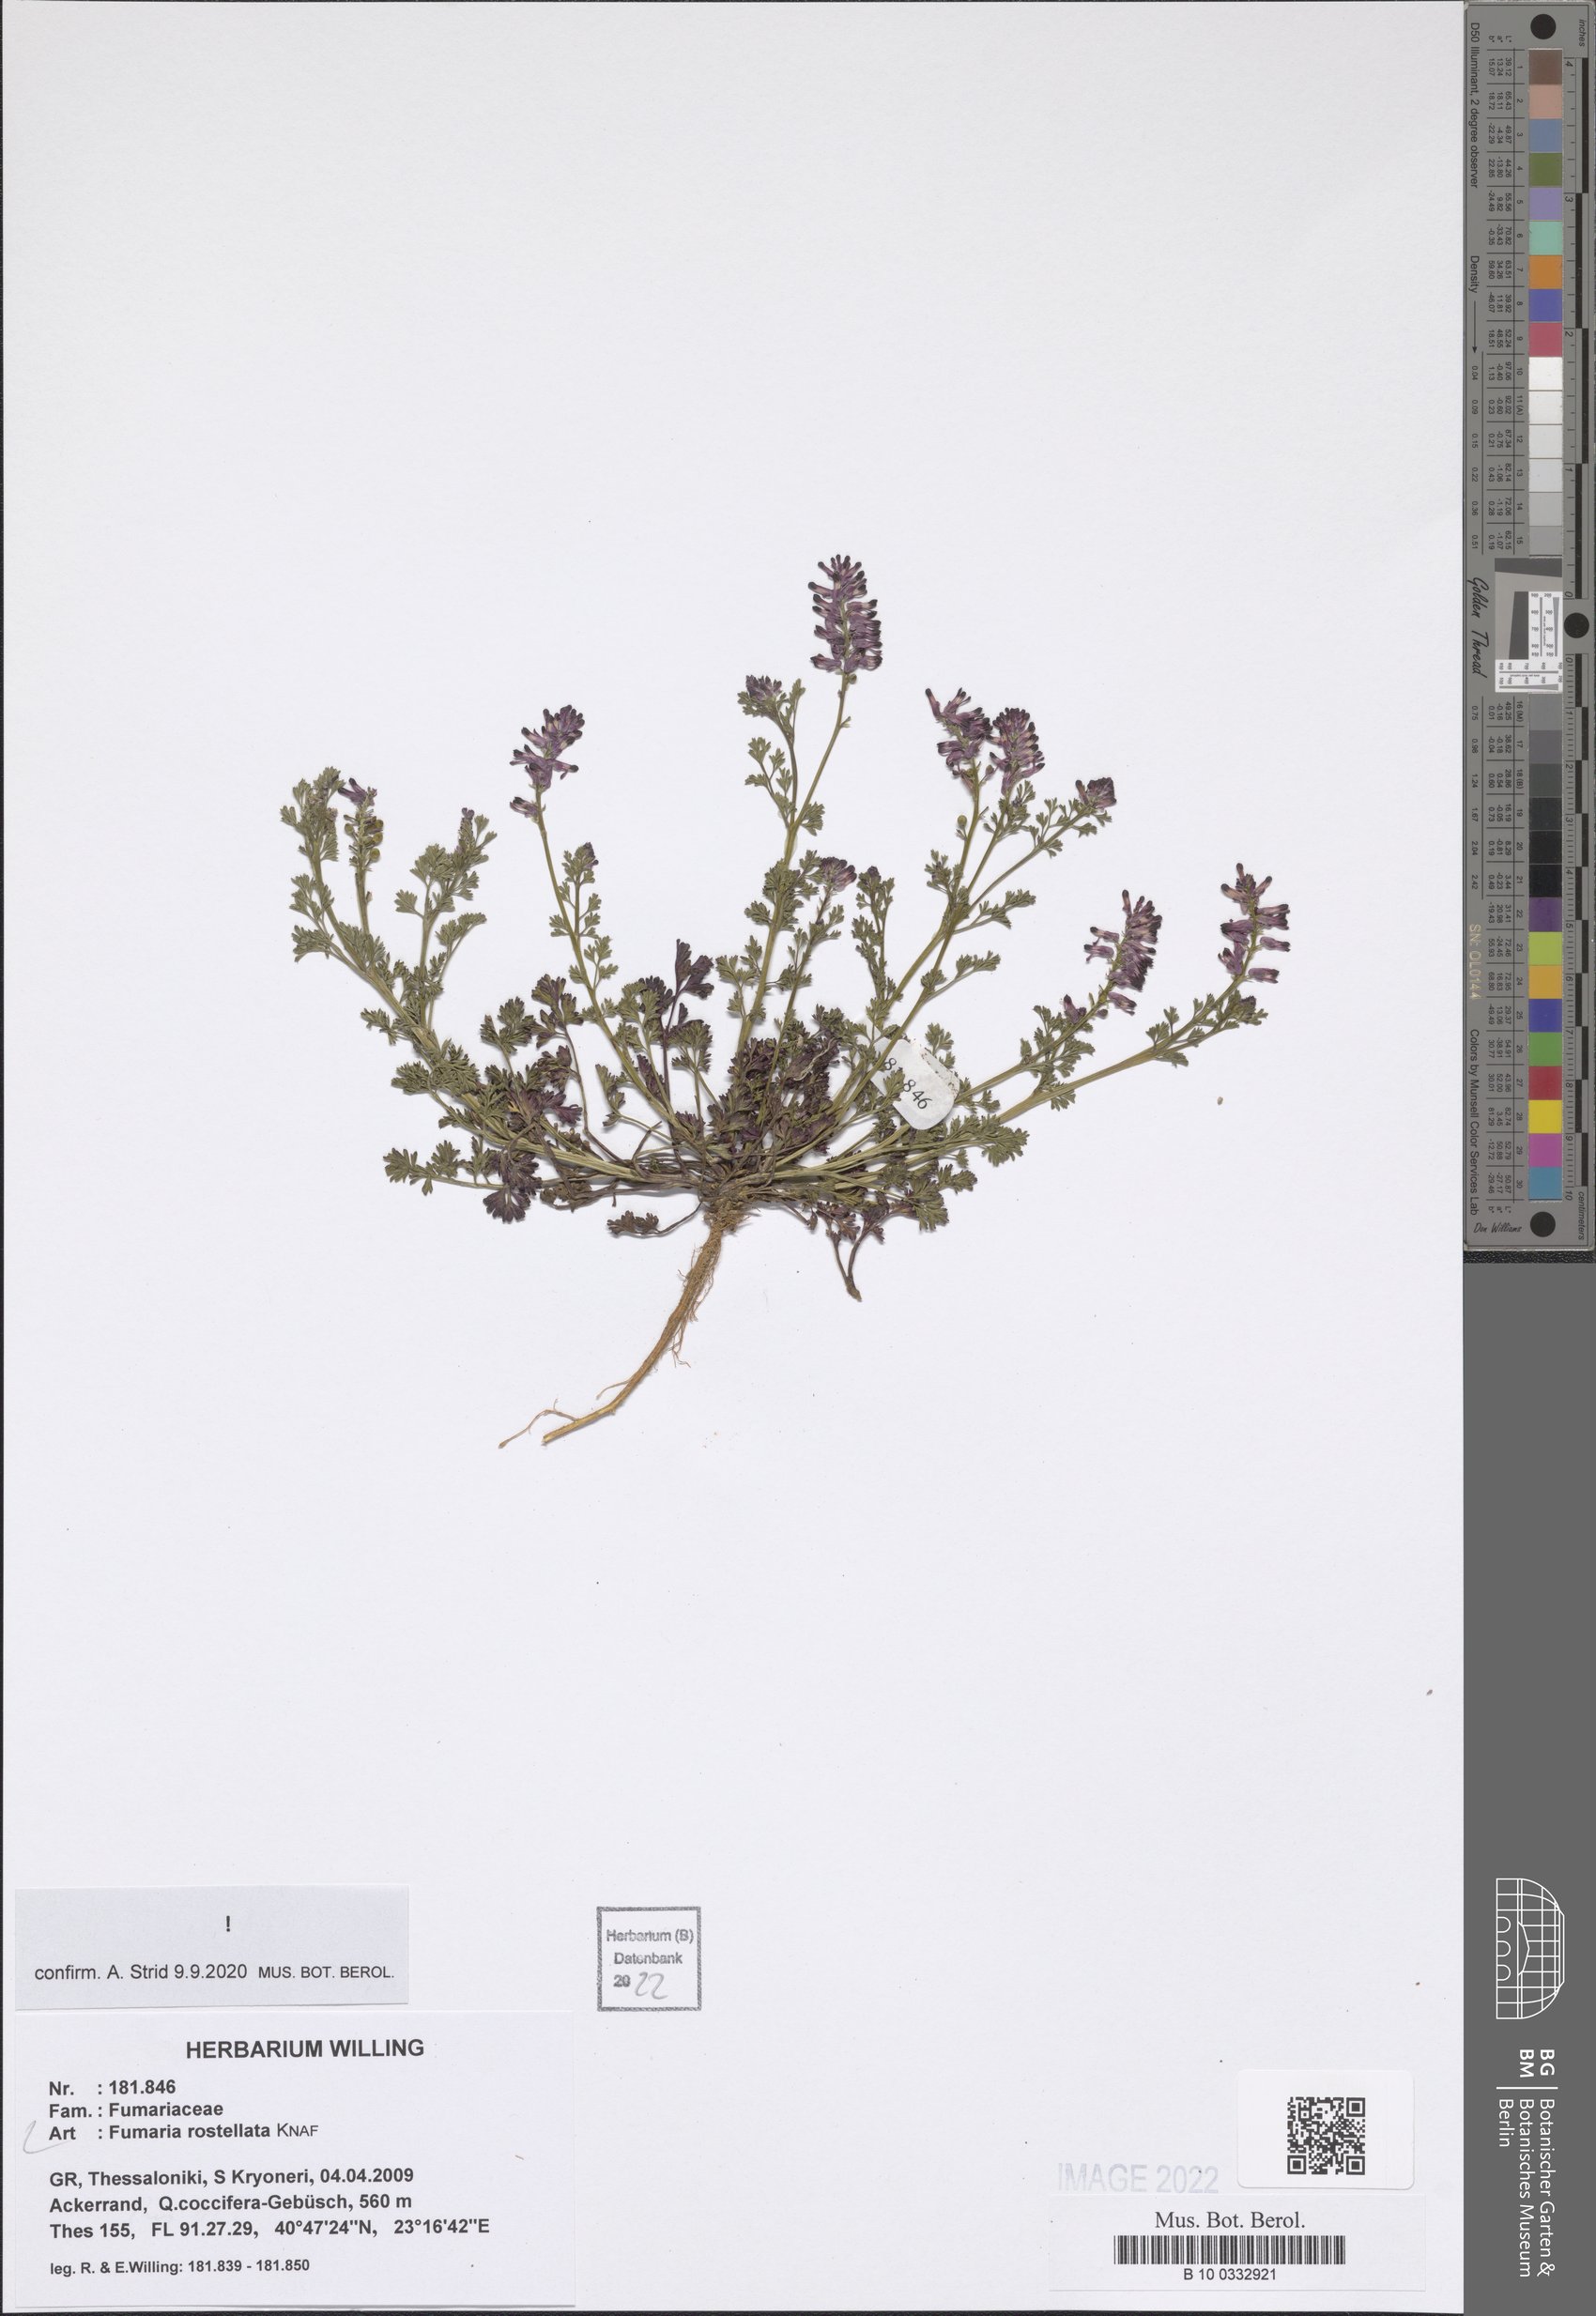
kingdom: Plantae
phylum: Tracheophyta
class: Magnoliopsida
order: Ranunculales
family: Papaveraceae
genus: Fumaria
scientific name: Fumaria rostellata
